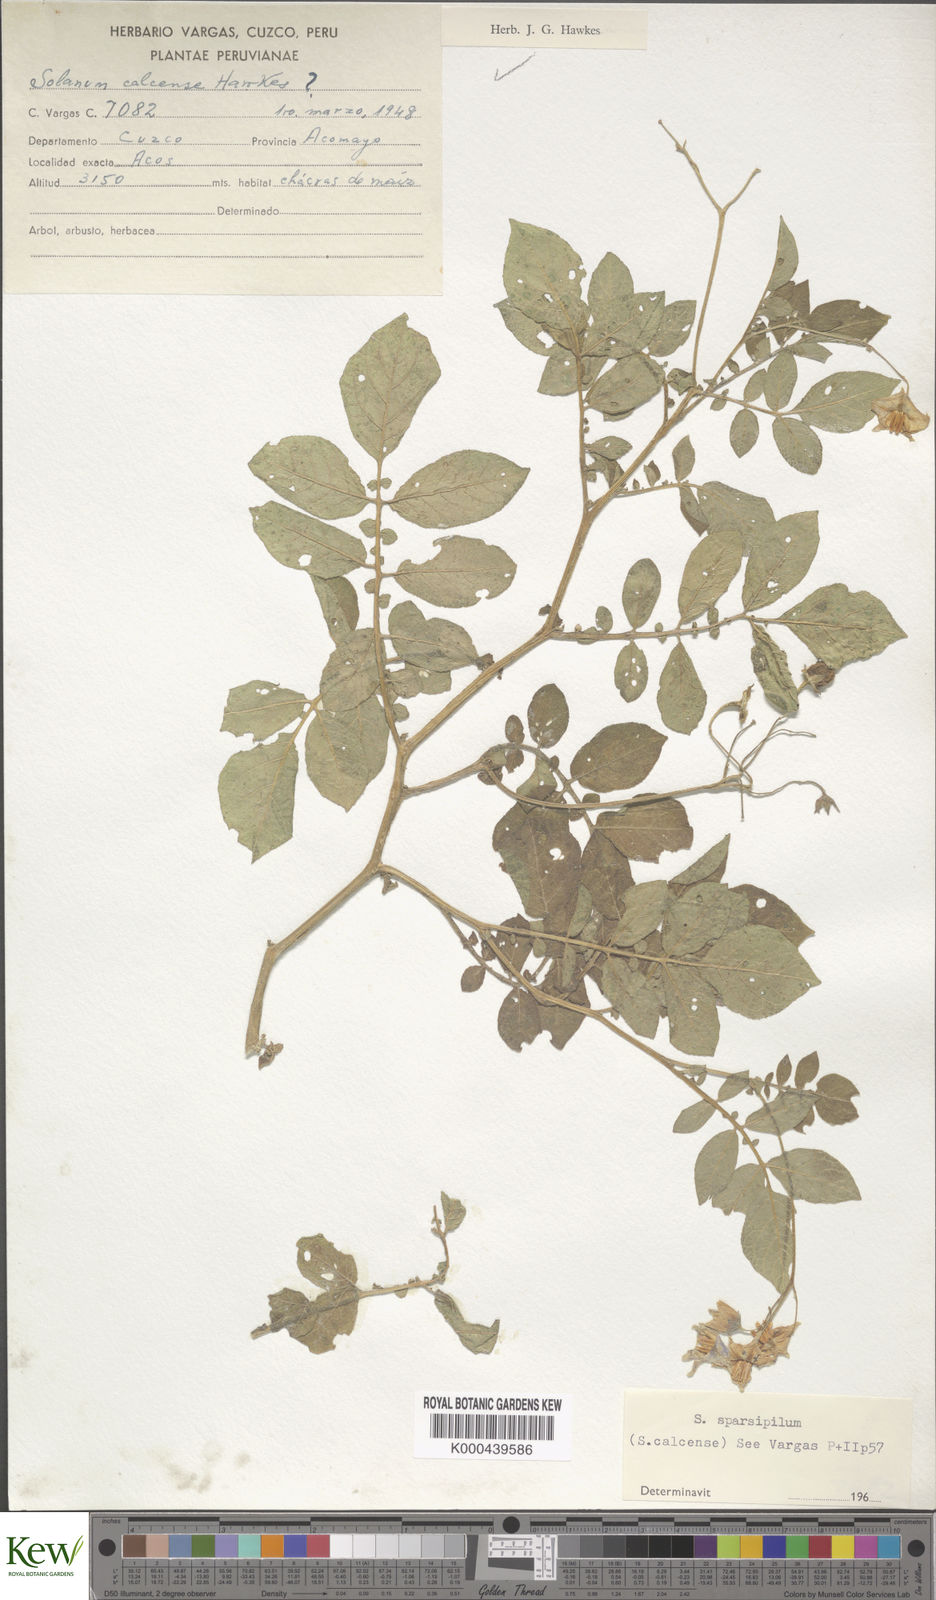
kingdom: Plantae
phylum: Tracheophyta
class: Magnoliopsida
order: Solanales
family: Solanaceae
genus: Solanum
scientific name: Solanum brevicaule
